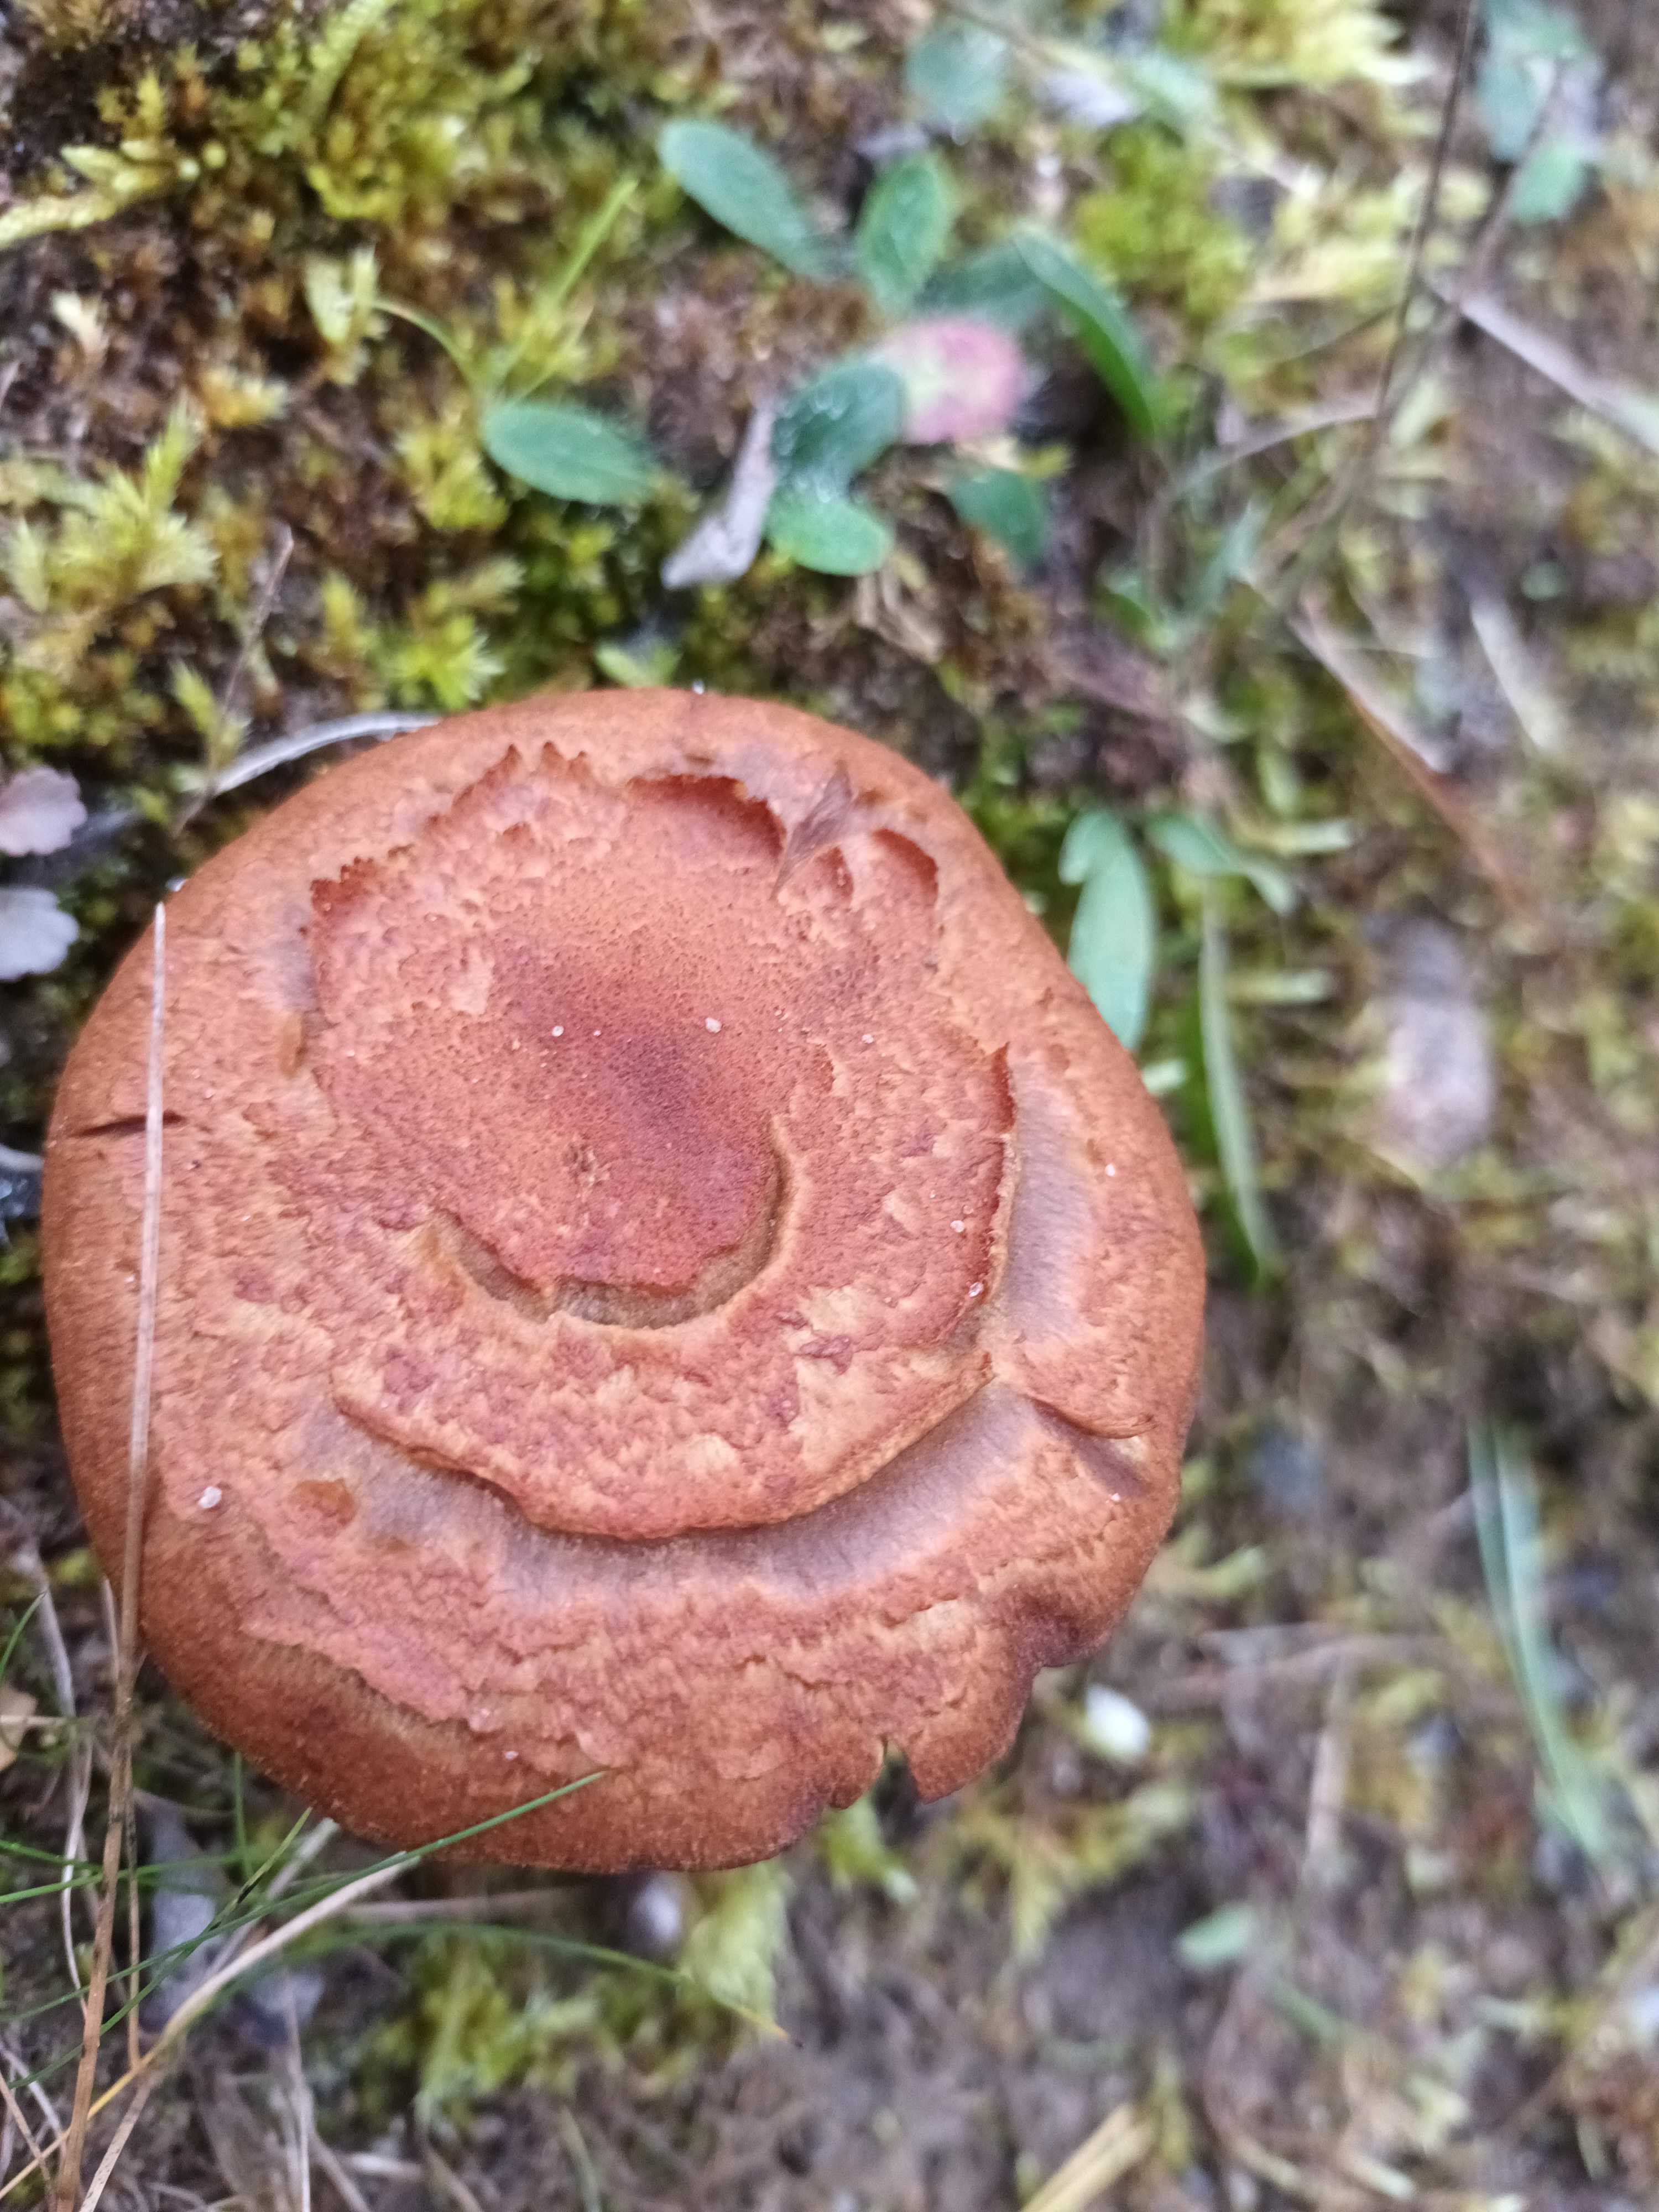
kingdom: Fungi
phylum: Basidiomycota
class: Agaricomycetes
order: Russulales
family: Russulaceae
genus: Lactarius
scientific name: Lactarius
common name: mælkehat
